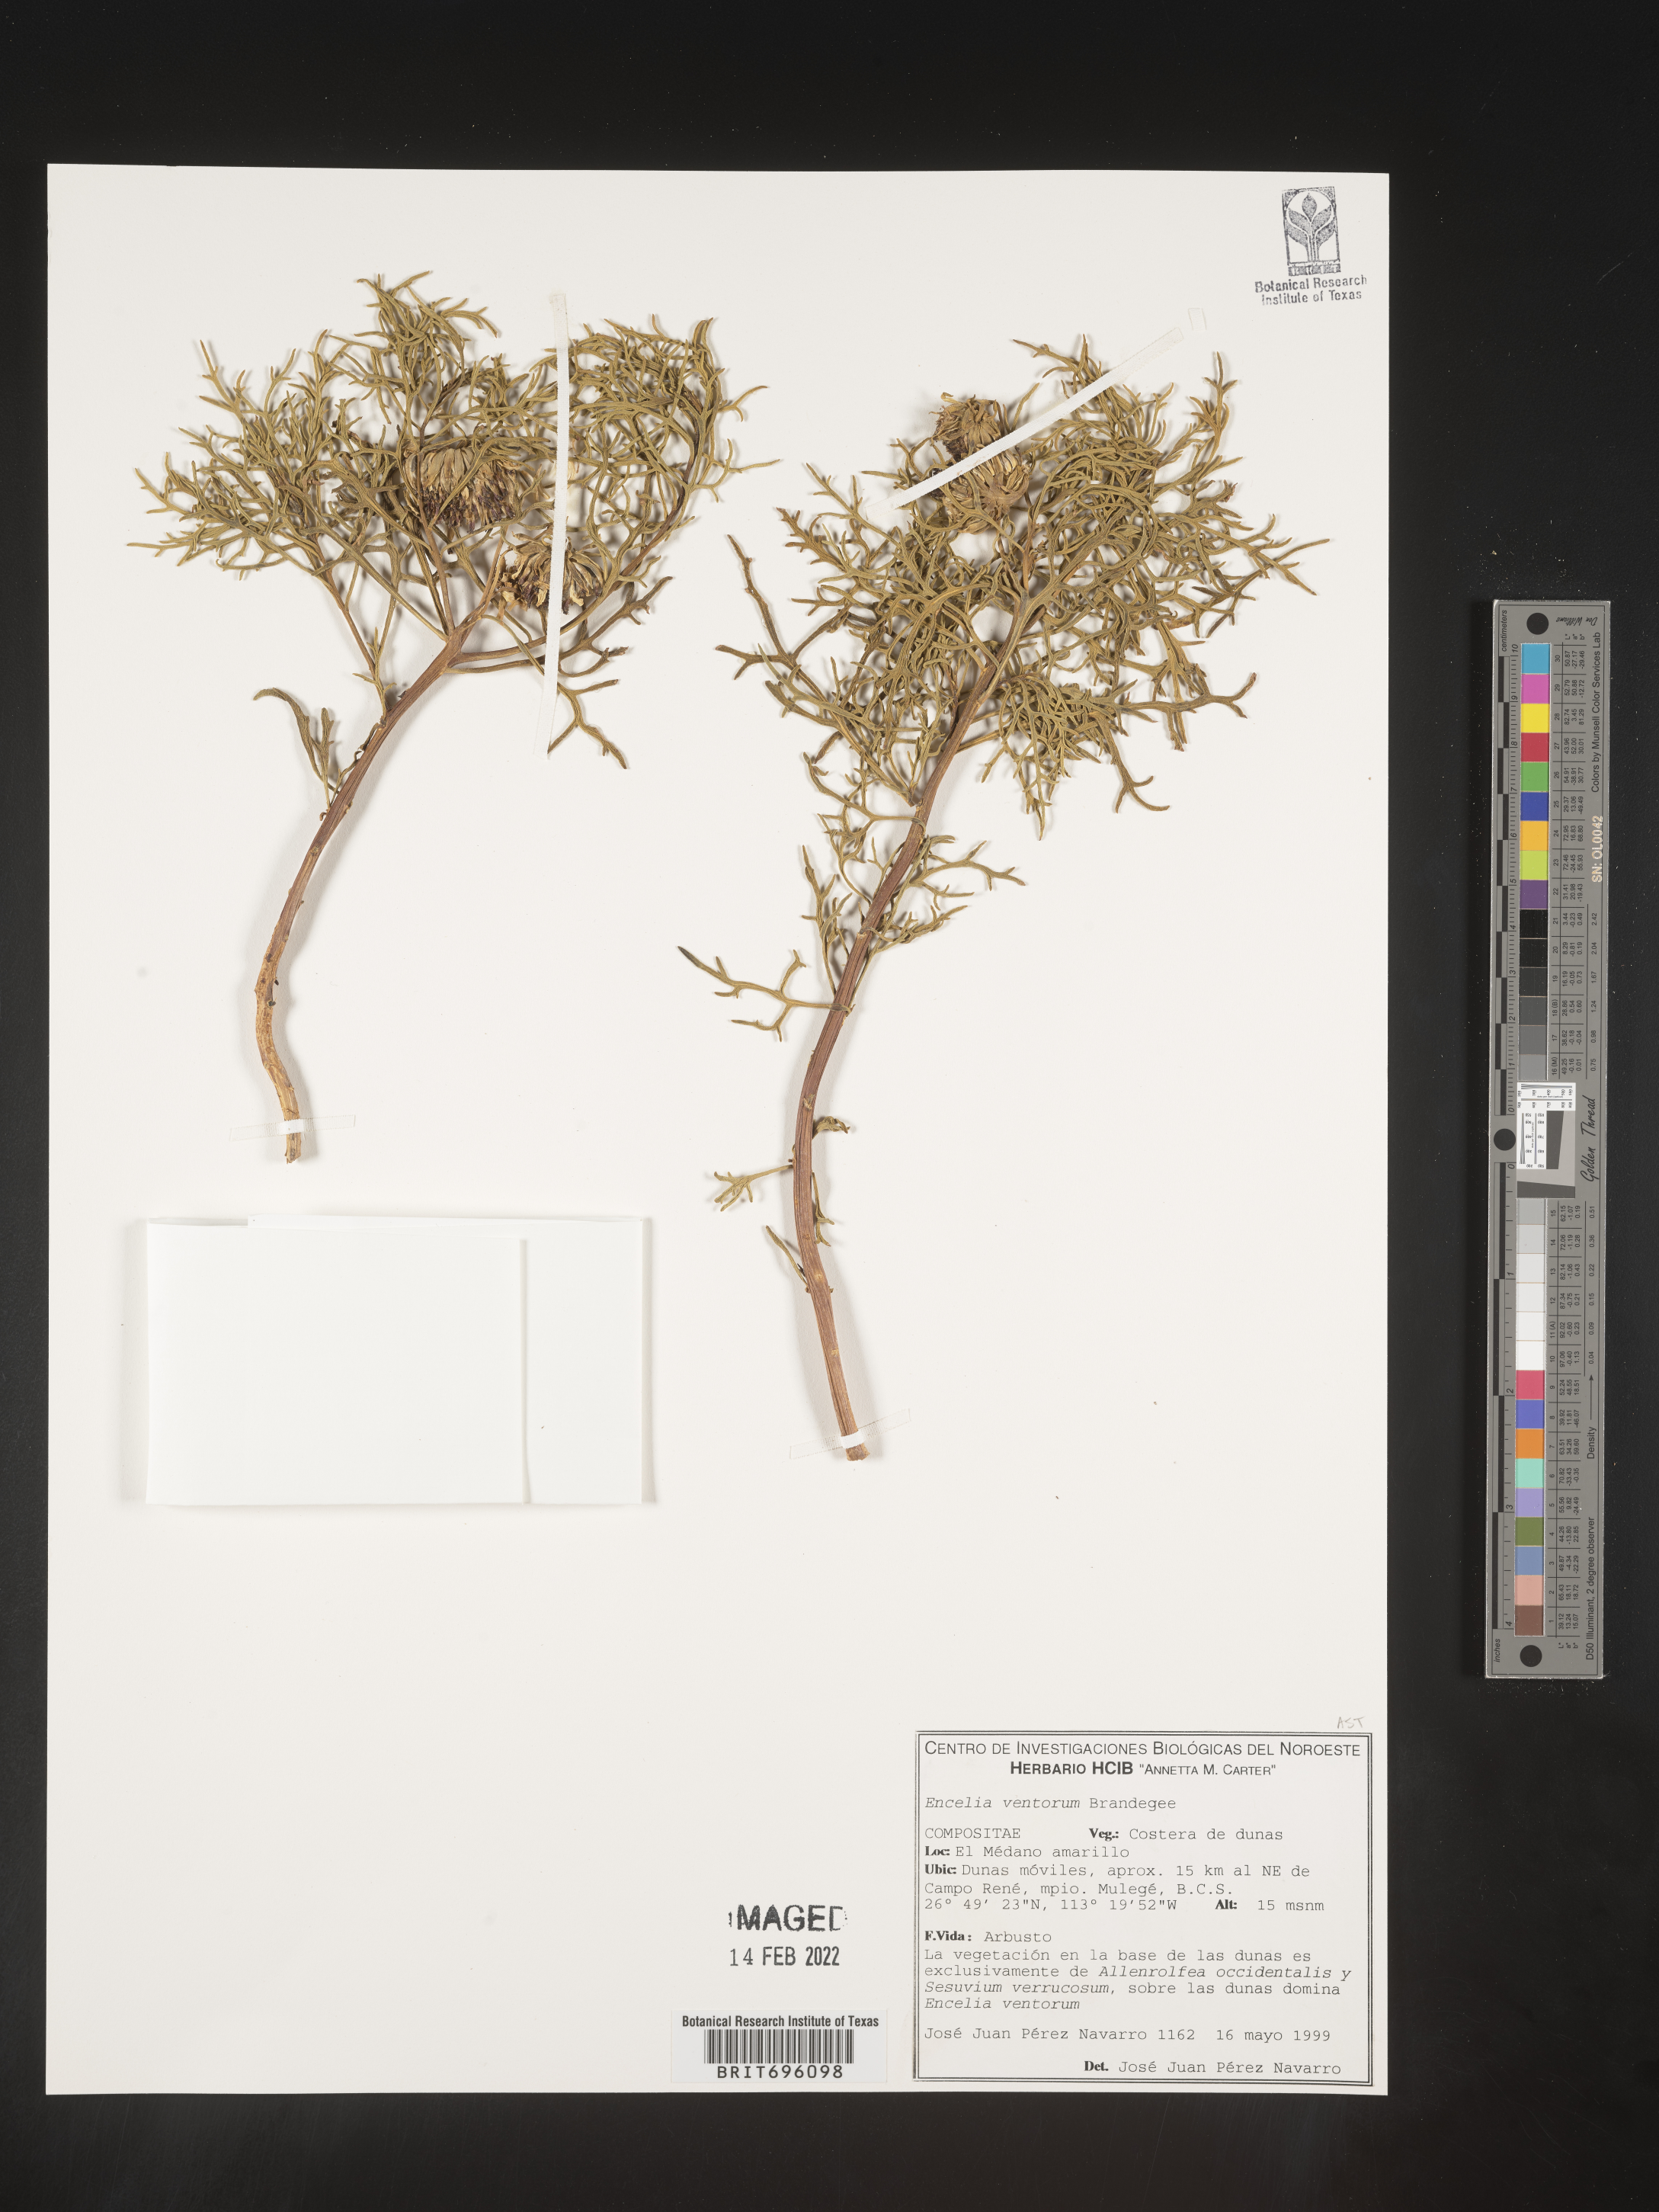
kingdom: Plantae
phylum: Tracheophyta
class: Magnoliopsida
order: Asterales
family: Asteraceae
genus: Encelia
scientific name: Encelia ventorum
